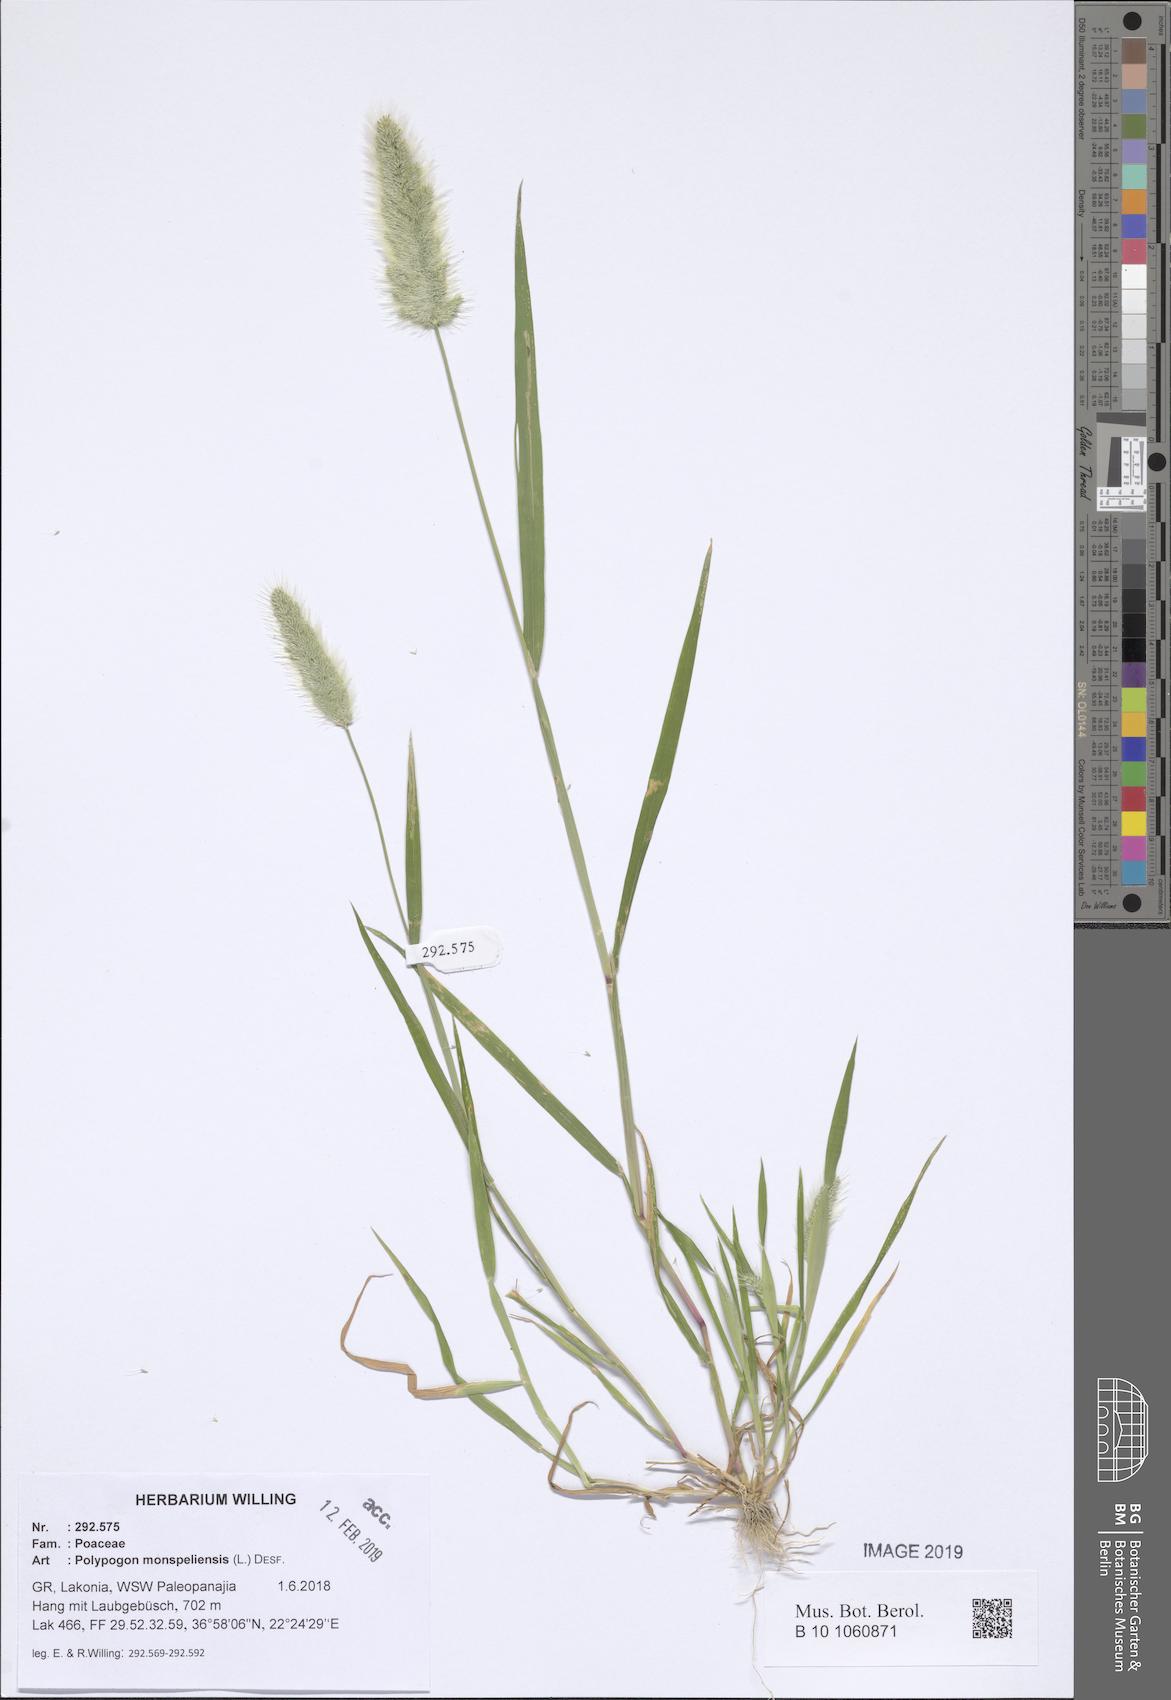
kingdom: Plantae
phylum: Tracheophyta
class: Liliopsida
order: Poales
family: Poaceae
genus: Polypogon
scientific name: Polypogon monspeliensis
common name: Annual rabbitsfoot grass
